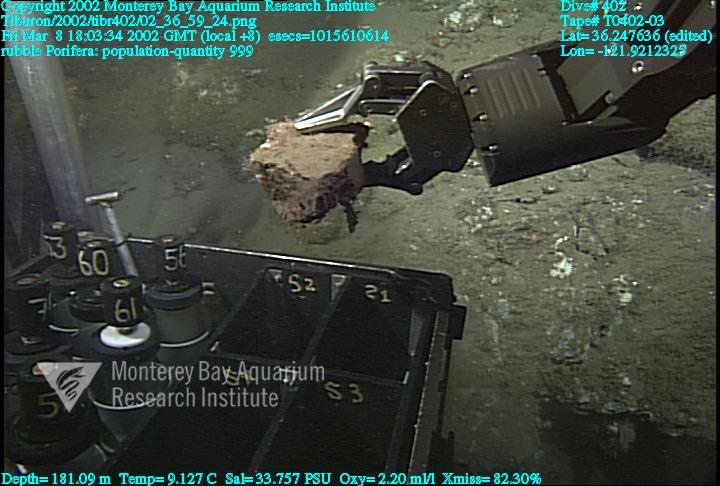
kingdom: Animalia
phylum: Porifera
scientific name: Porifera
